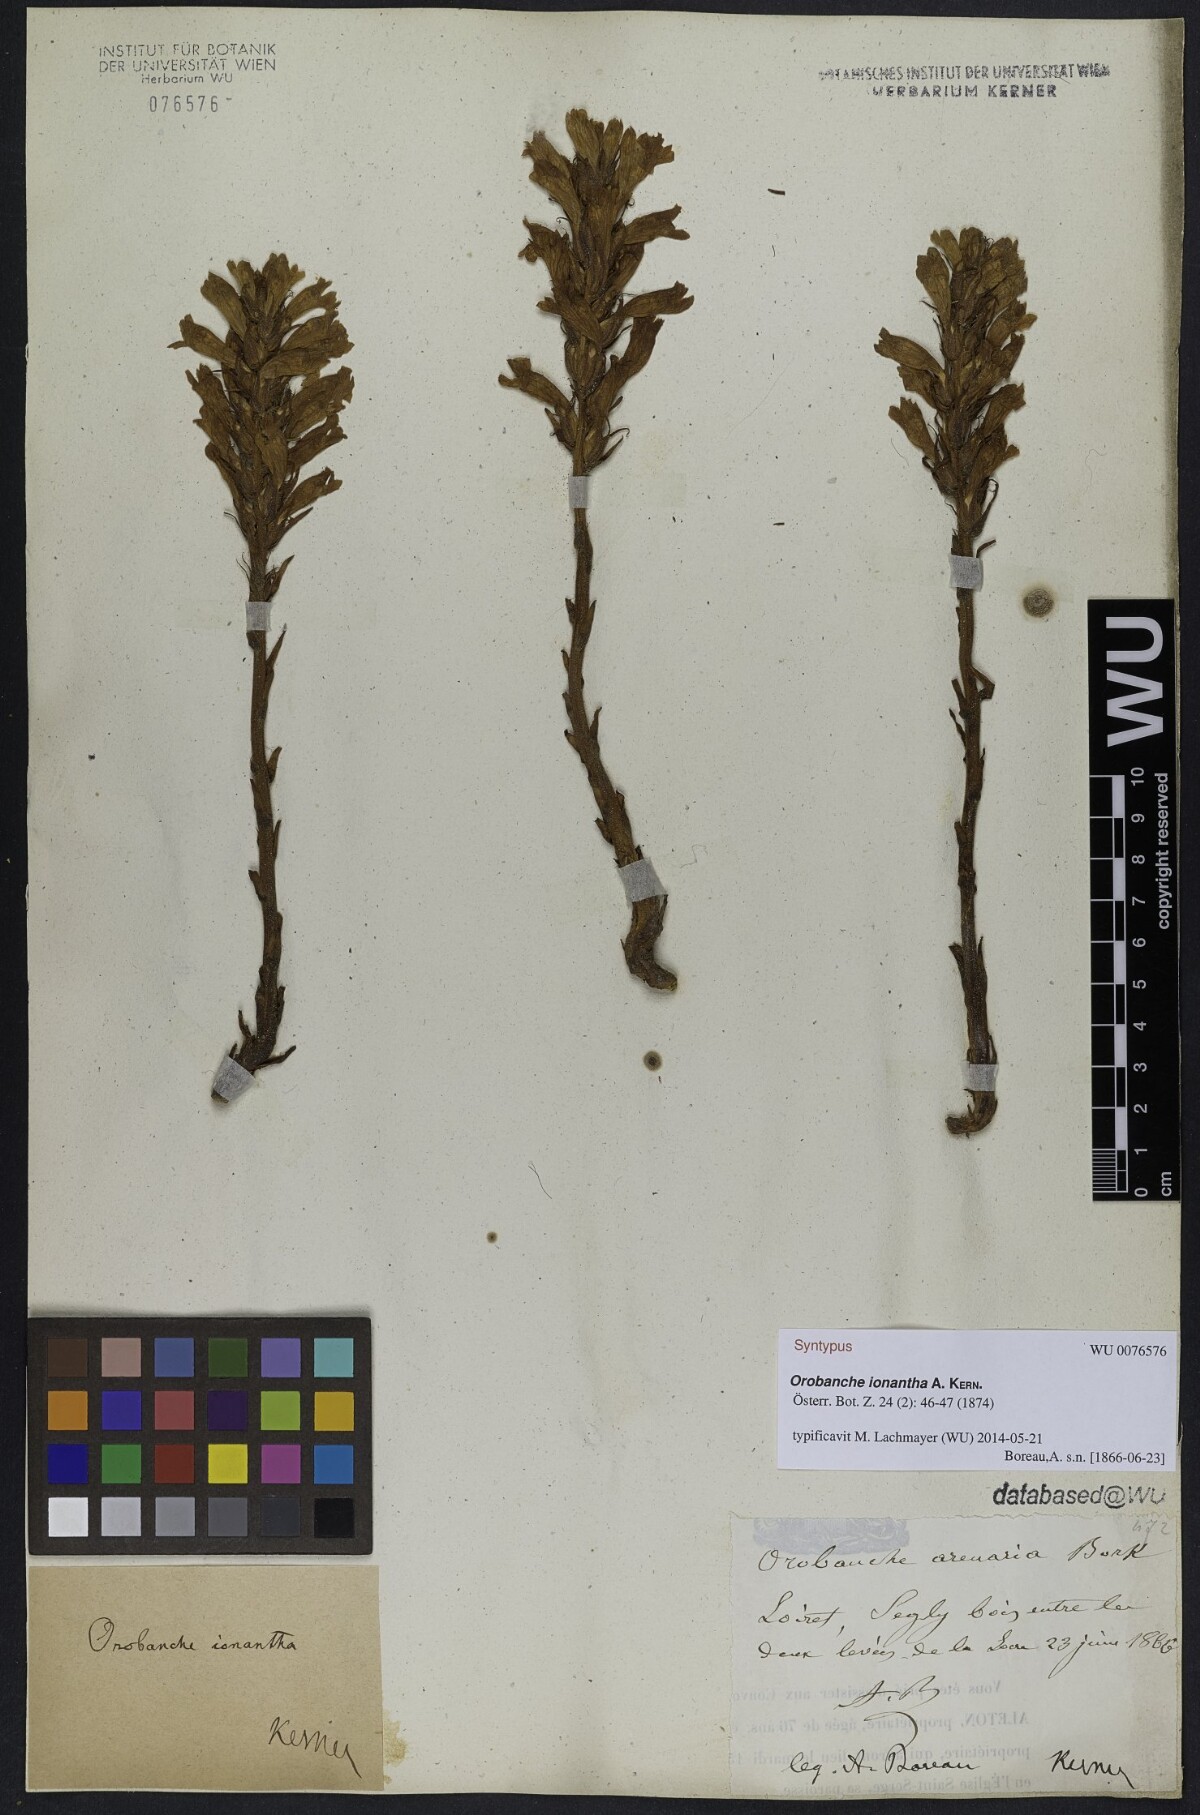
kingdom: Plantae
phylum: Tracheophyta
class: Magnoliopsida
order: Lamiales
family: Orobanchaceae
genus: Phelipanche
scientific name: Phelipanche arenaria
